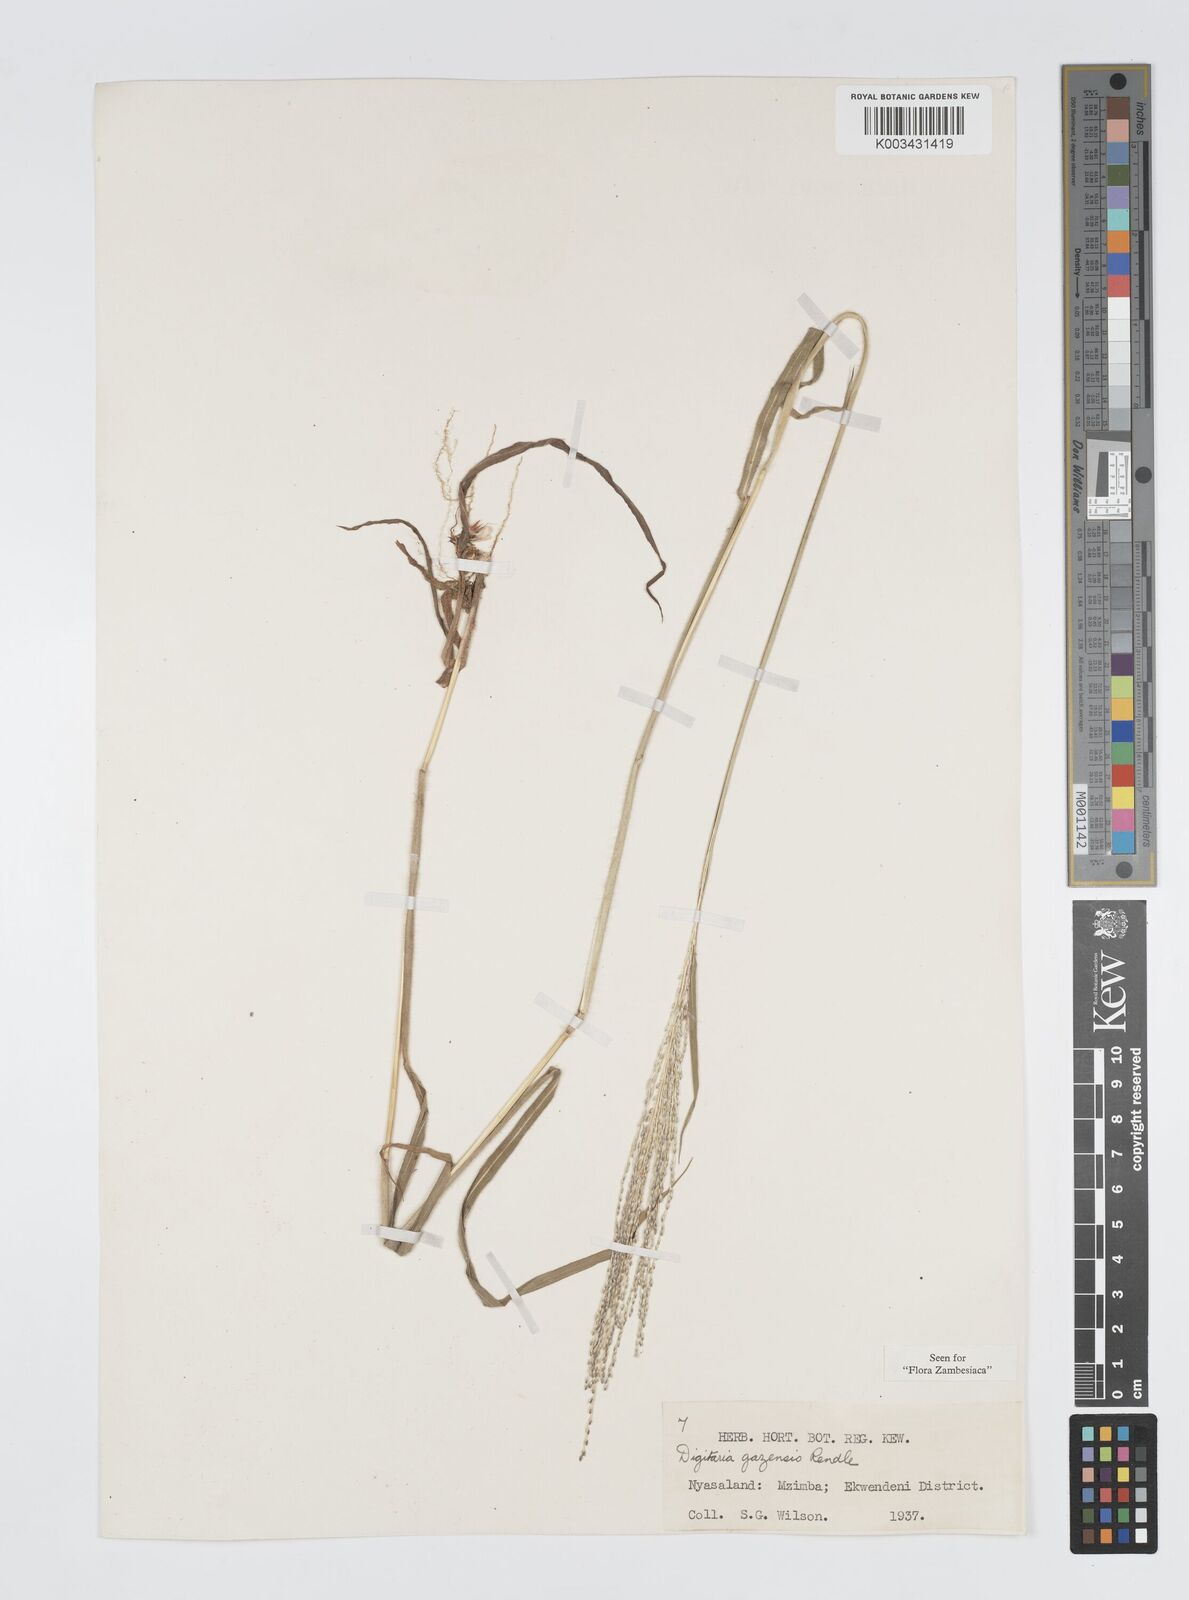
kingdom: Plantae
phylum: Tracheophyta
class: Liliopsida
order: Poales
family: Poaceae
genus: Digitaria
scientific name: Digitaria gazensis
